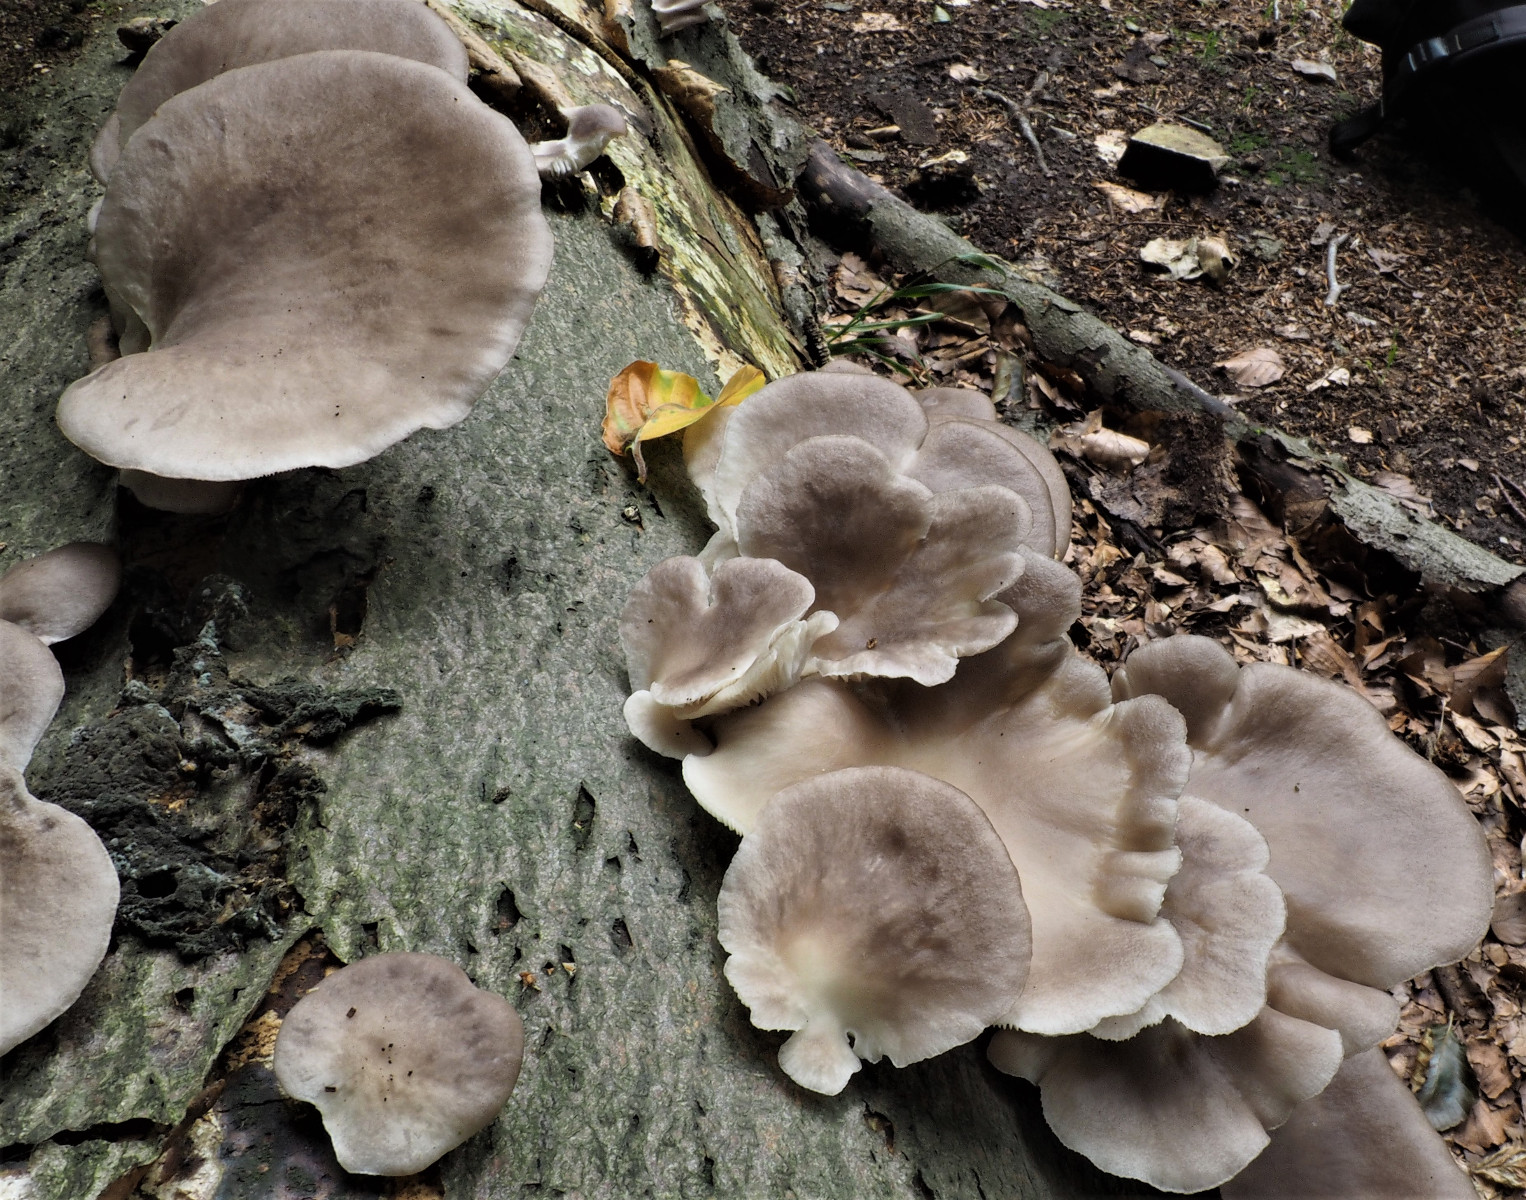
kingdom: Fungi
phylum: Basidiomycota
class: Agaricomycetes
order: Agaricales
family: Pleurotaceae
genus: Pleurotus
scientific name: Pleurotus ostreatus
